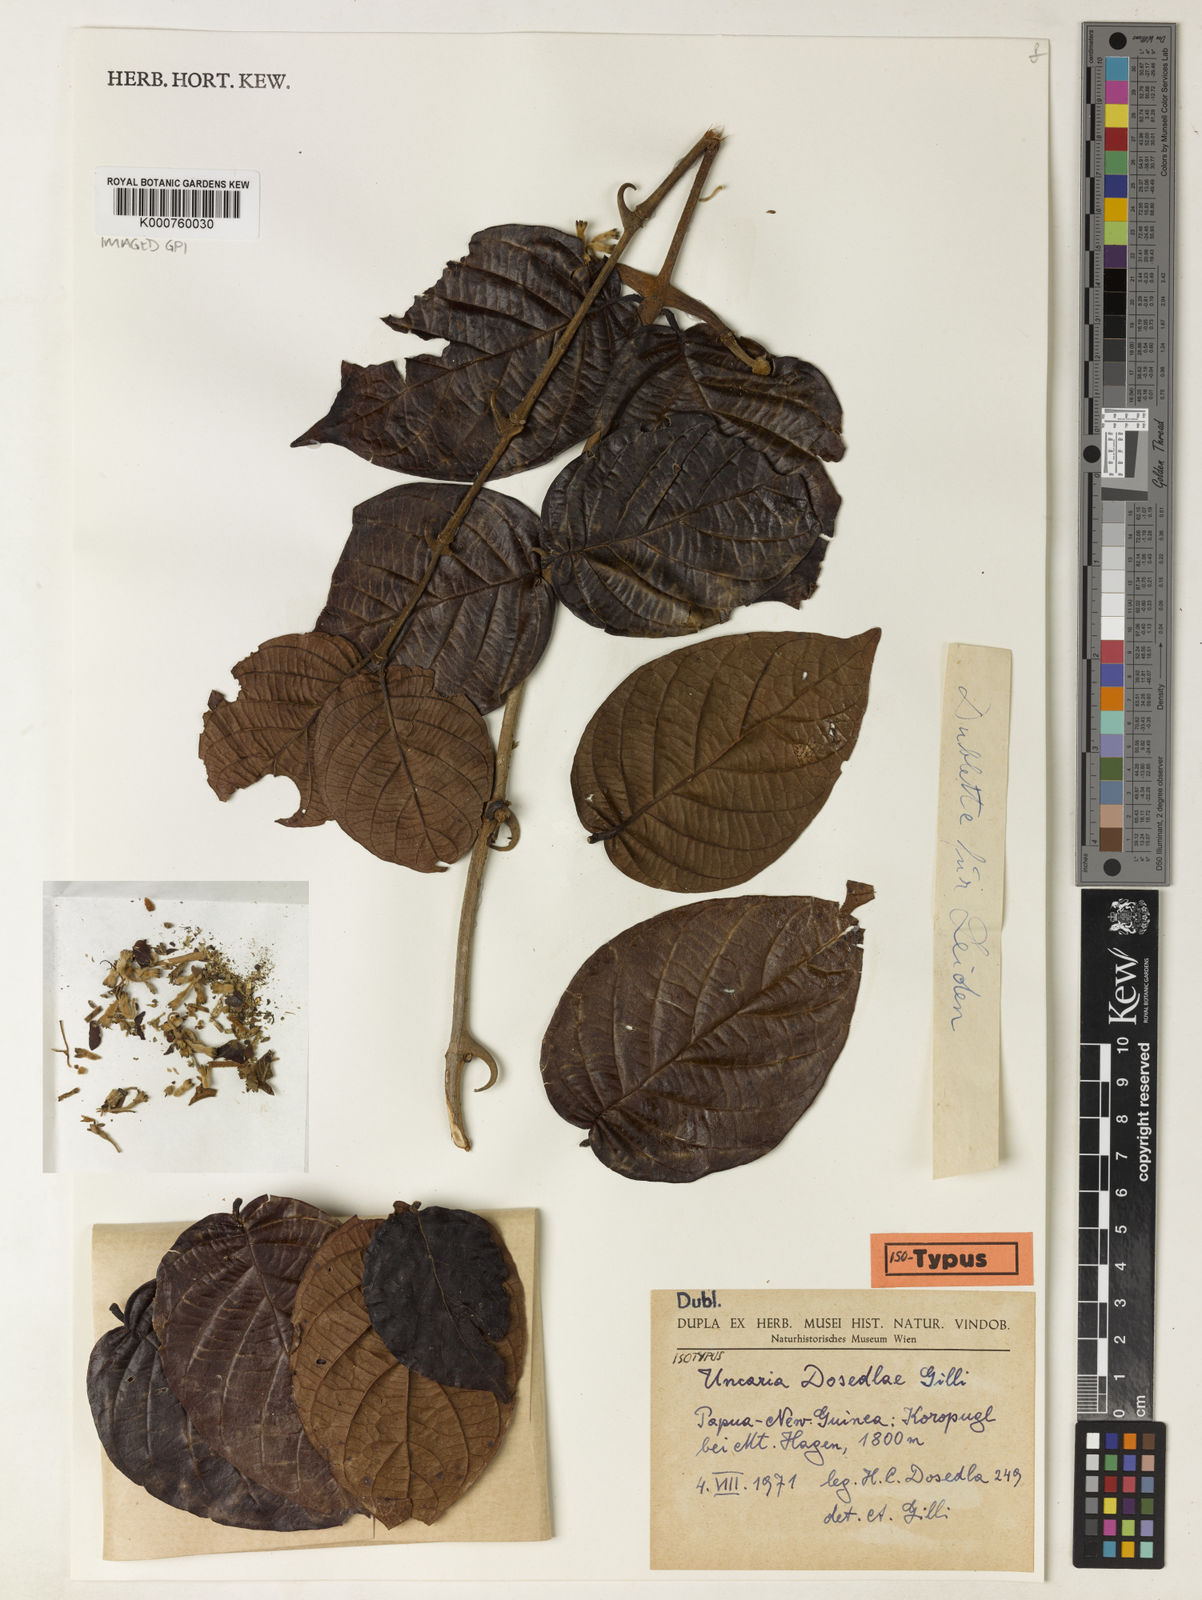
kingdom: Plantae
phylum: Tracheophyta
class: Magnoliopsida
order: Gentianales
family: Rubiaceae
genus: Uncaria
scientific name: Uncaria sterrophylla
